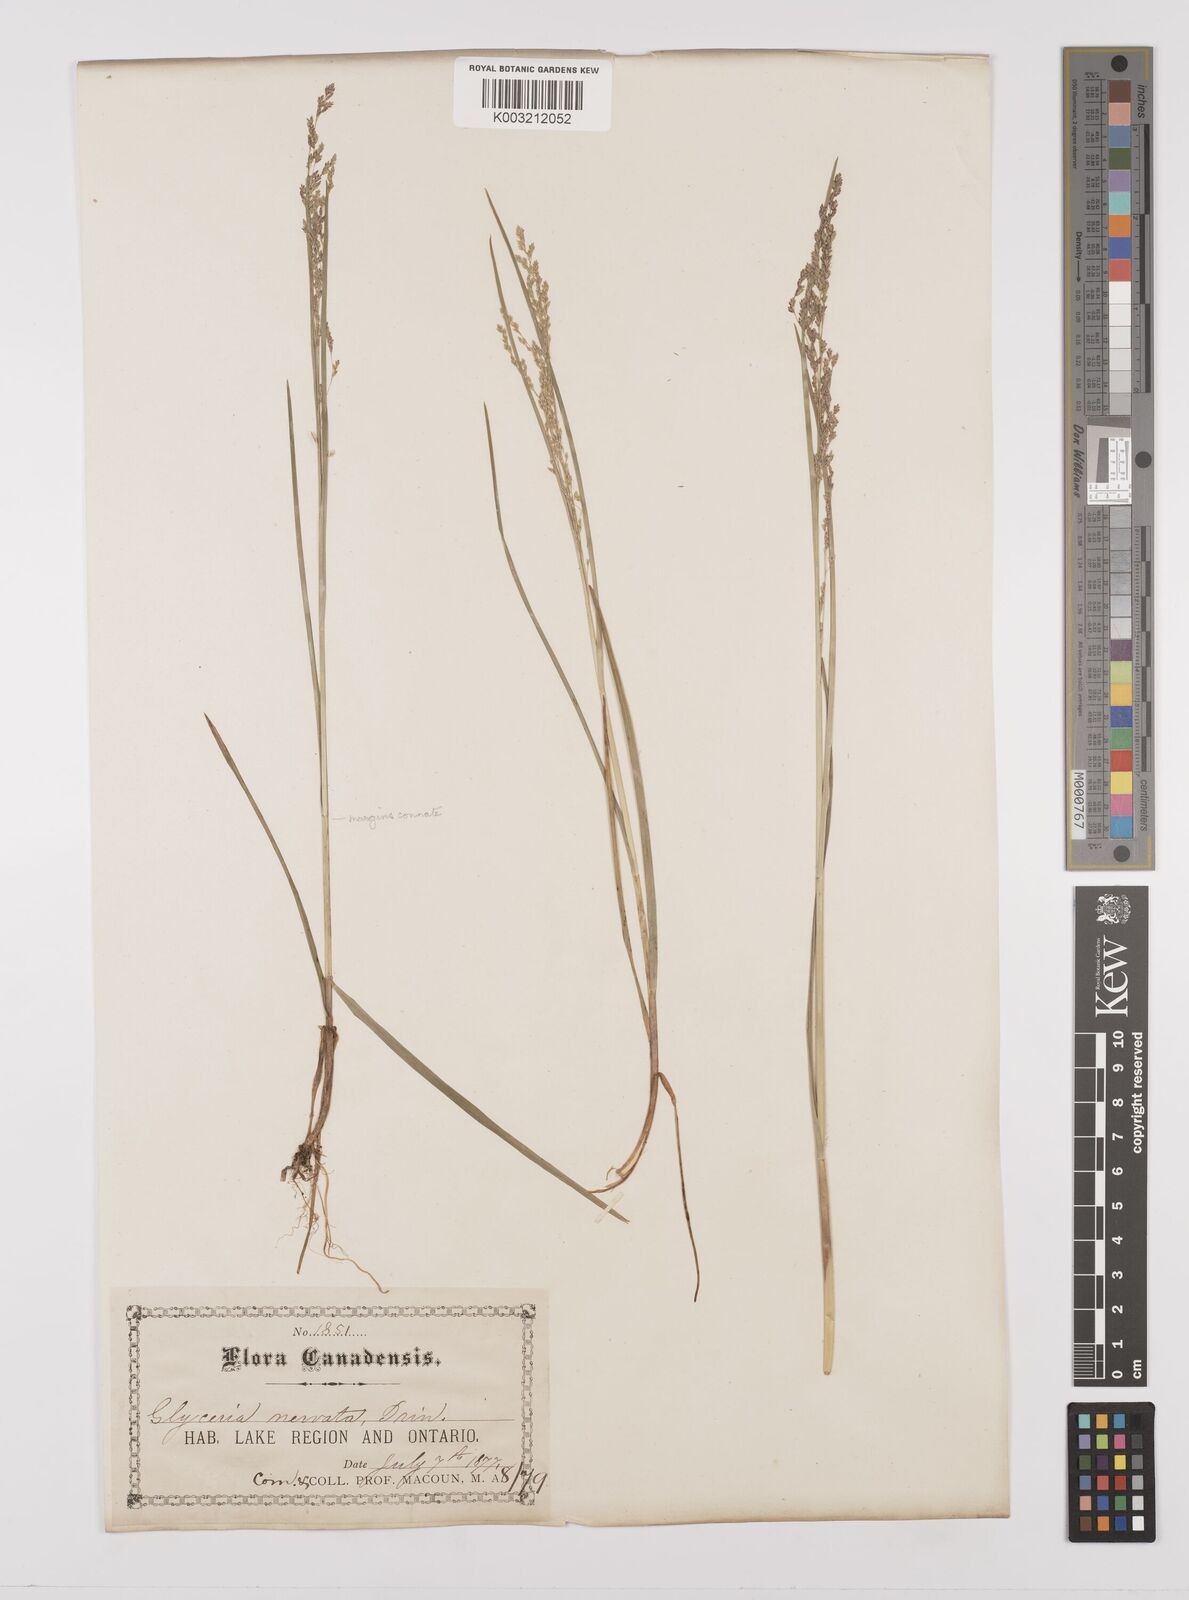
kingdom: Plantae
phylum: Tracheophyta
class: Liliopsida
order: Poales
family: Poaceae
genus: Glyceria
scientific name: Glyceria striata
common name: Fowl manna grass
